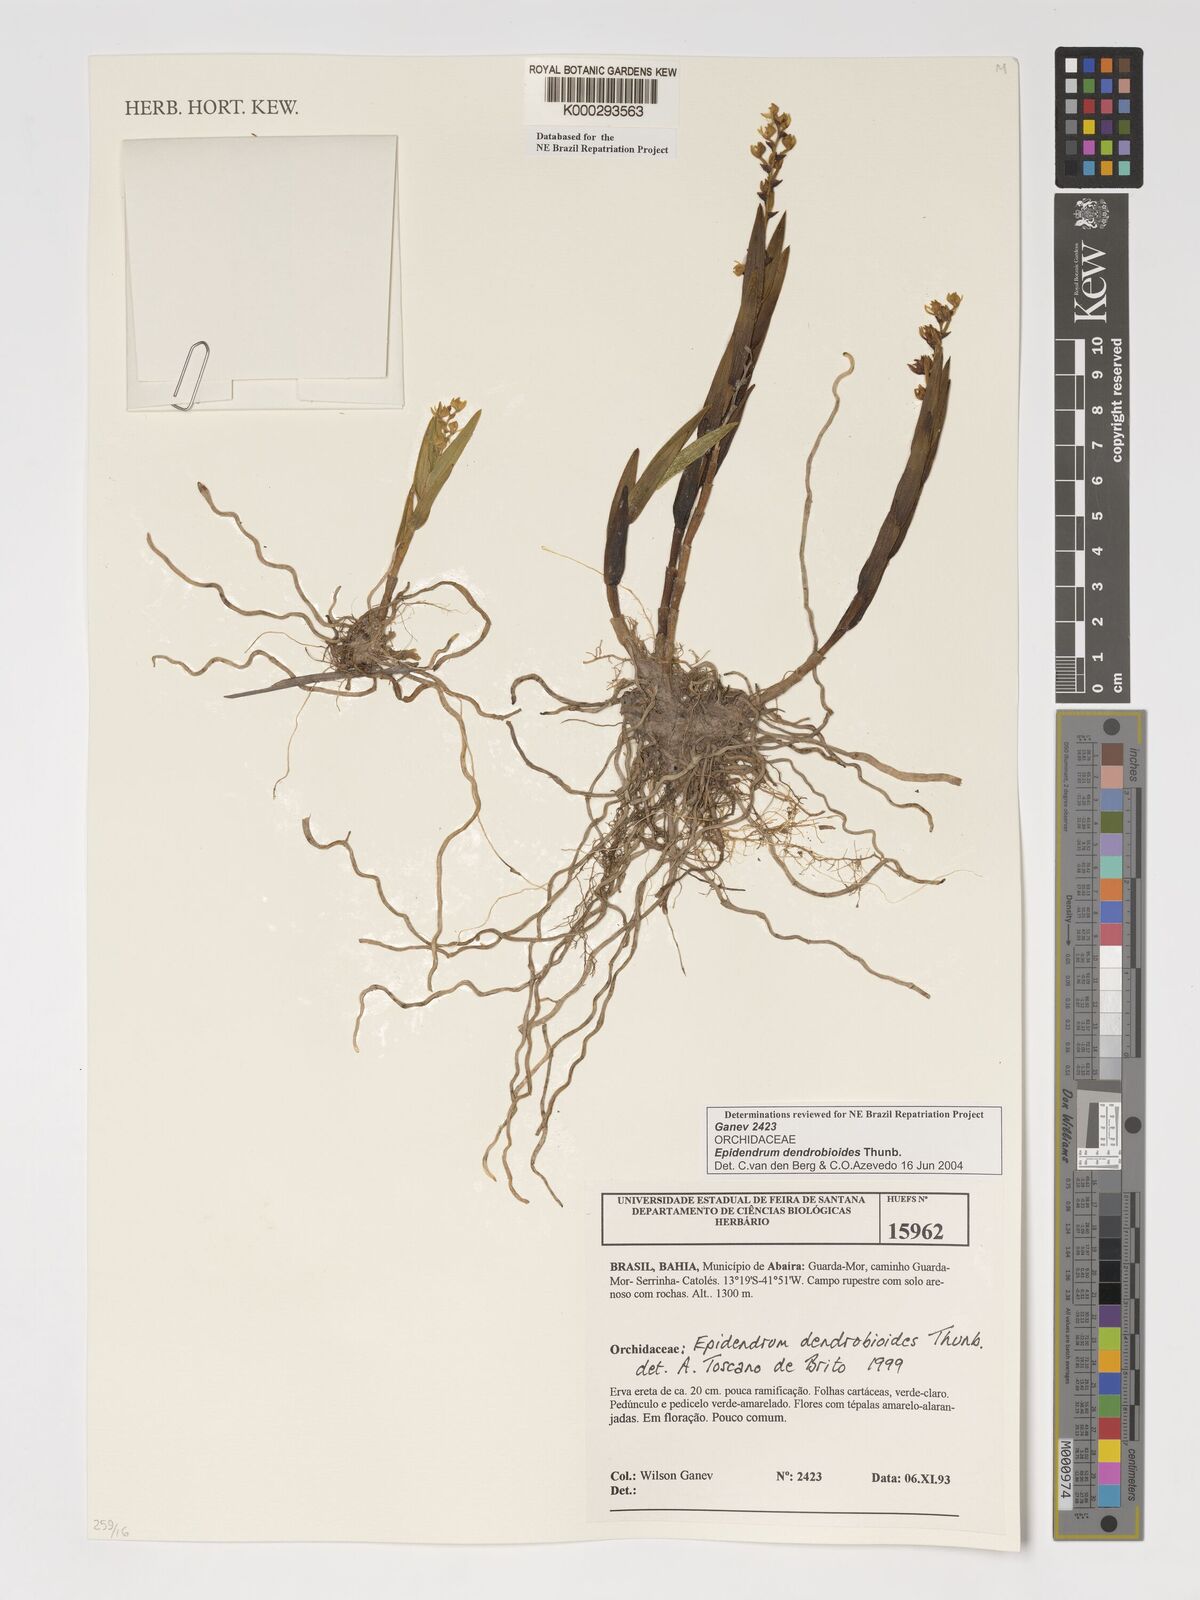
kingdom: Plantae
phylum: Tracheophyta
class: Liliopsida
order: Asparagales
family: Orchidaceae
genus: Epidendrum
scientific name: Epidendrum dendrobioides
